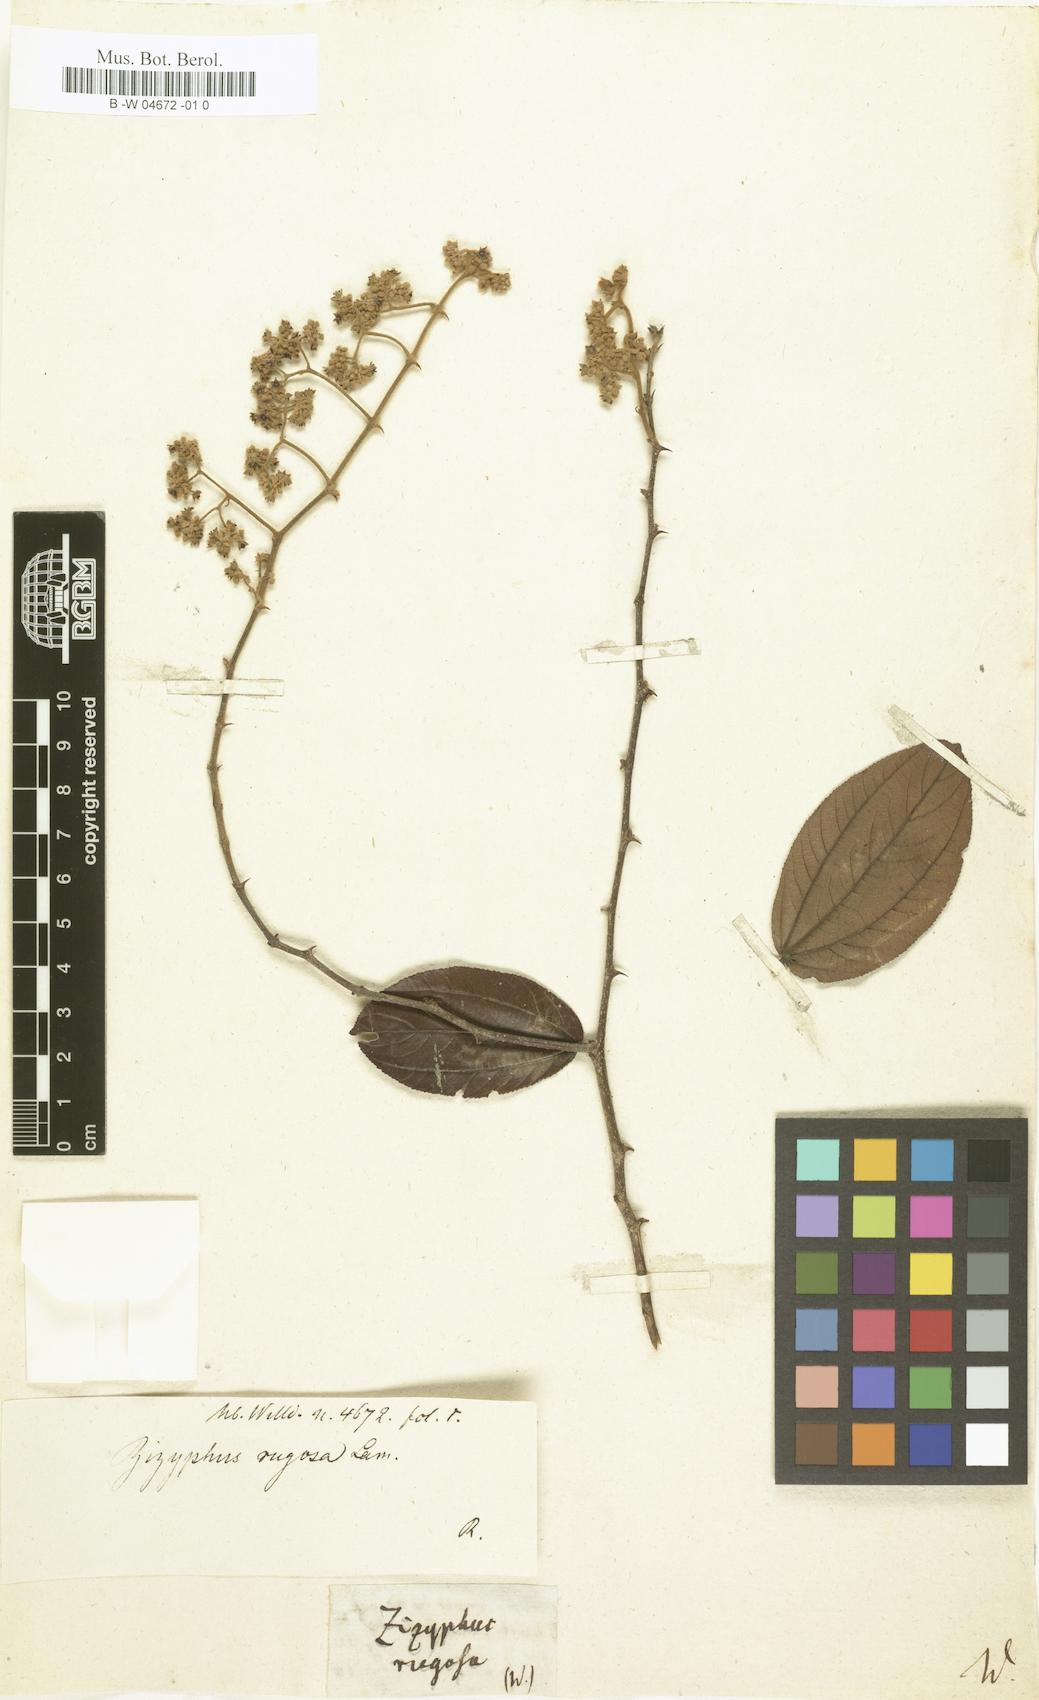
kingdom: Plantae
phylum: Tracheophyta
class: Magnoliopsida
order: Rosales
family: Rhamnaceae
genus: Ziziphus
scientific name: Ziziphus rugosa
